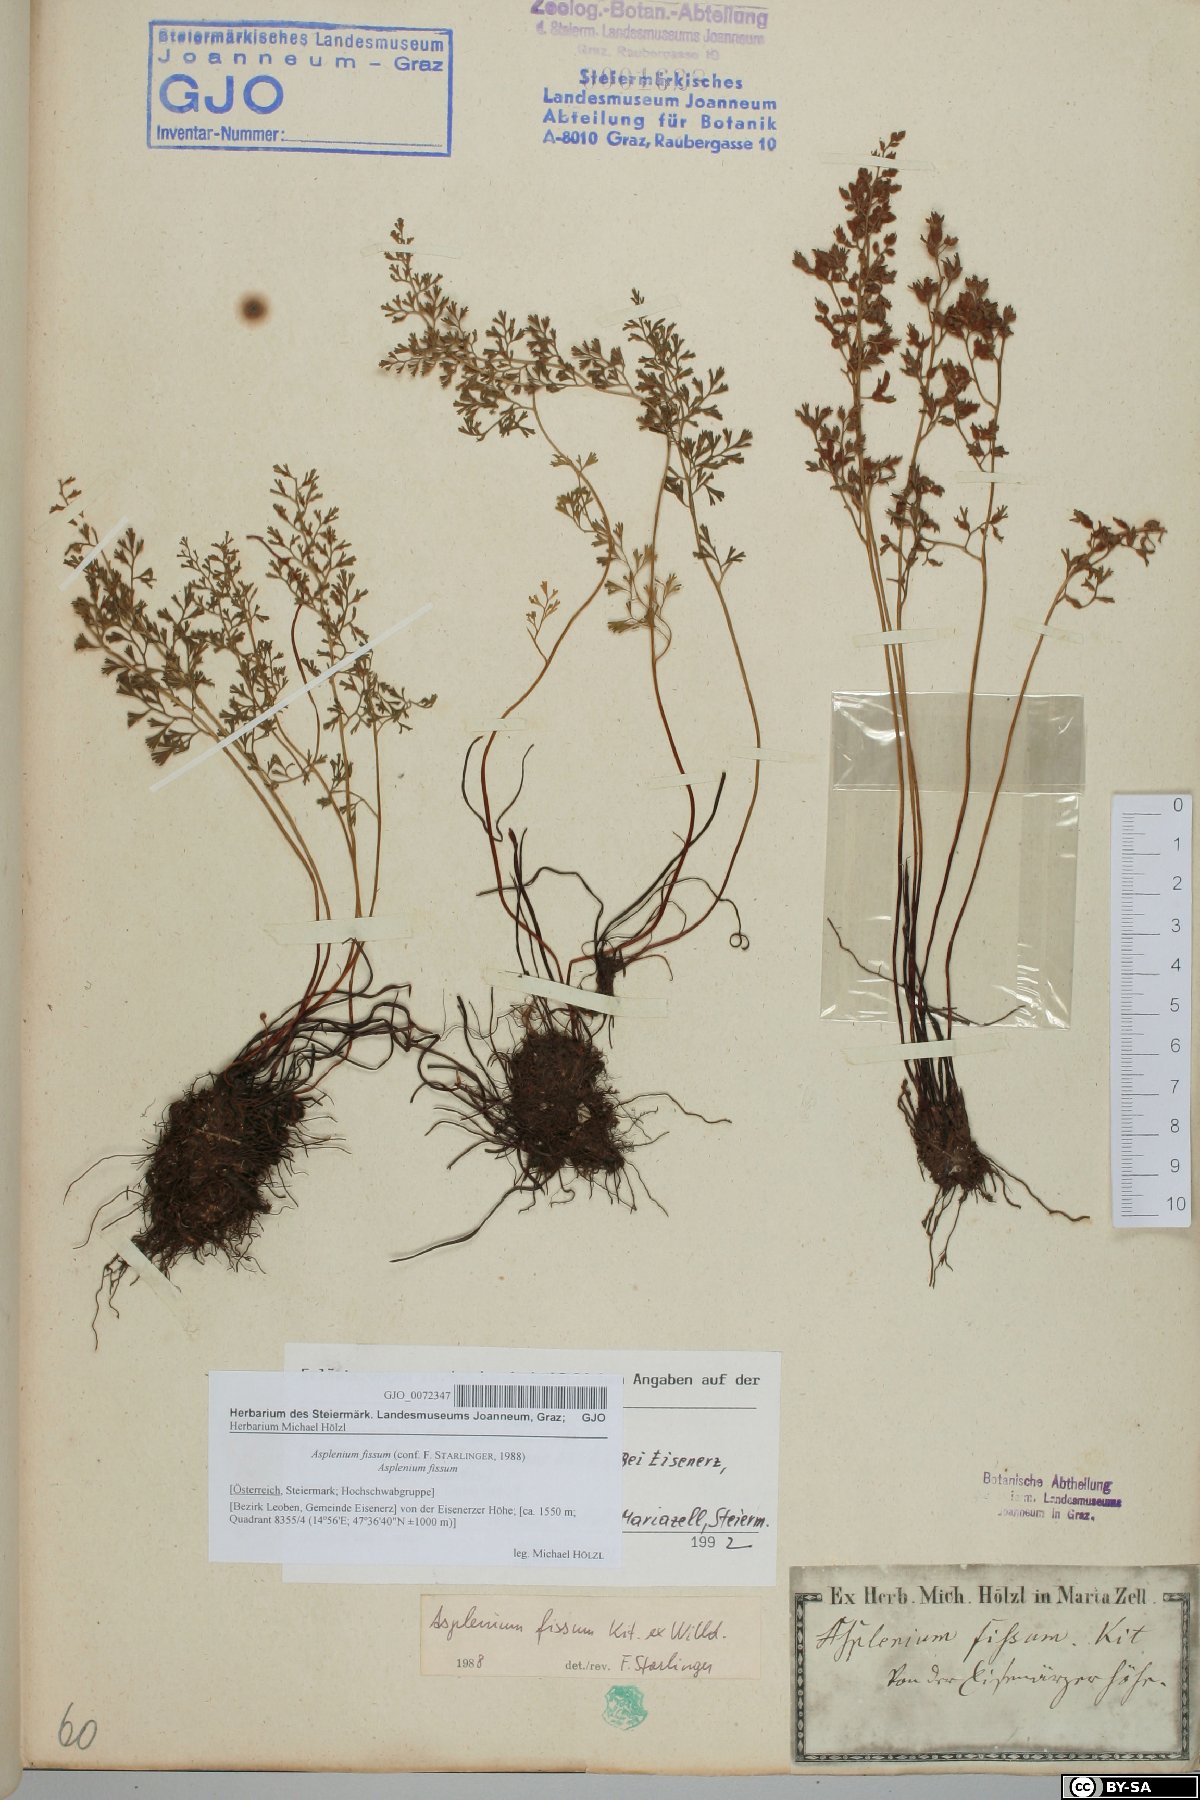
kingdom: Plantae
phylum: Tracheophyta
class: Polypodiopsida
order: Polypodiales
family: Aspleniaceae
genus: Asplenium
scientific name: Asplenium fissum
